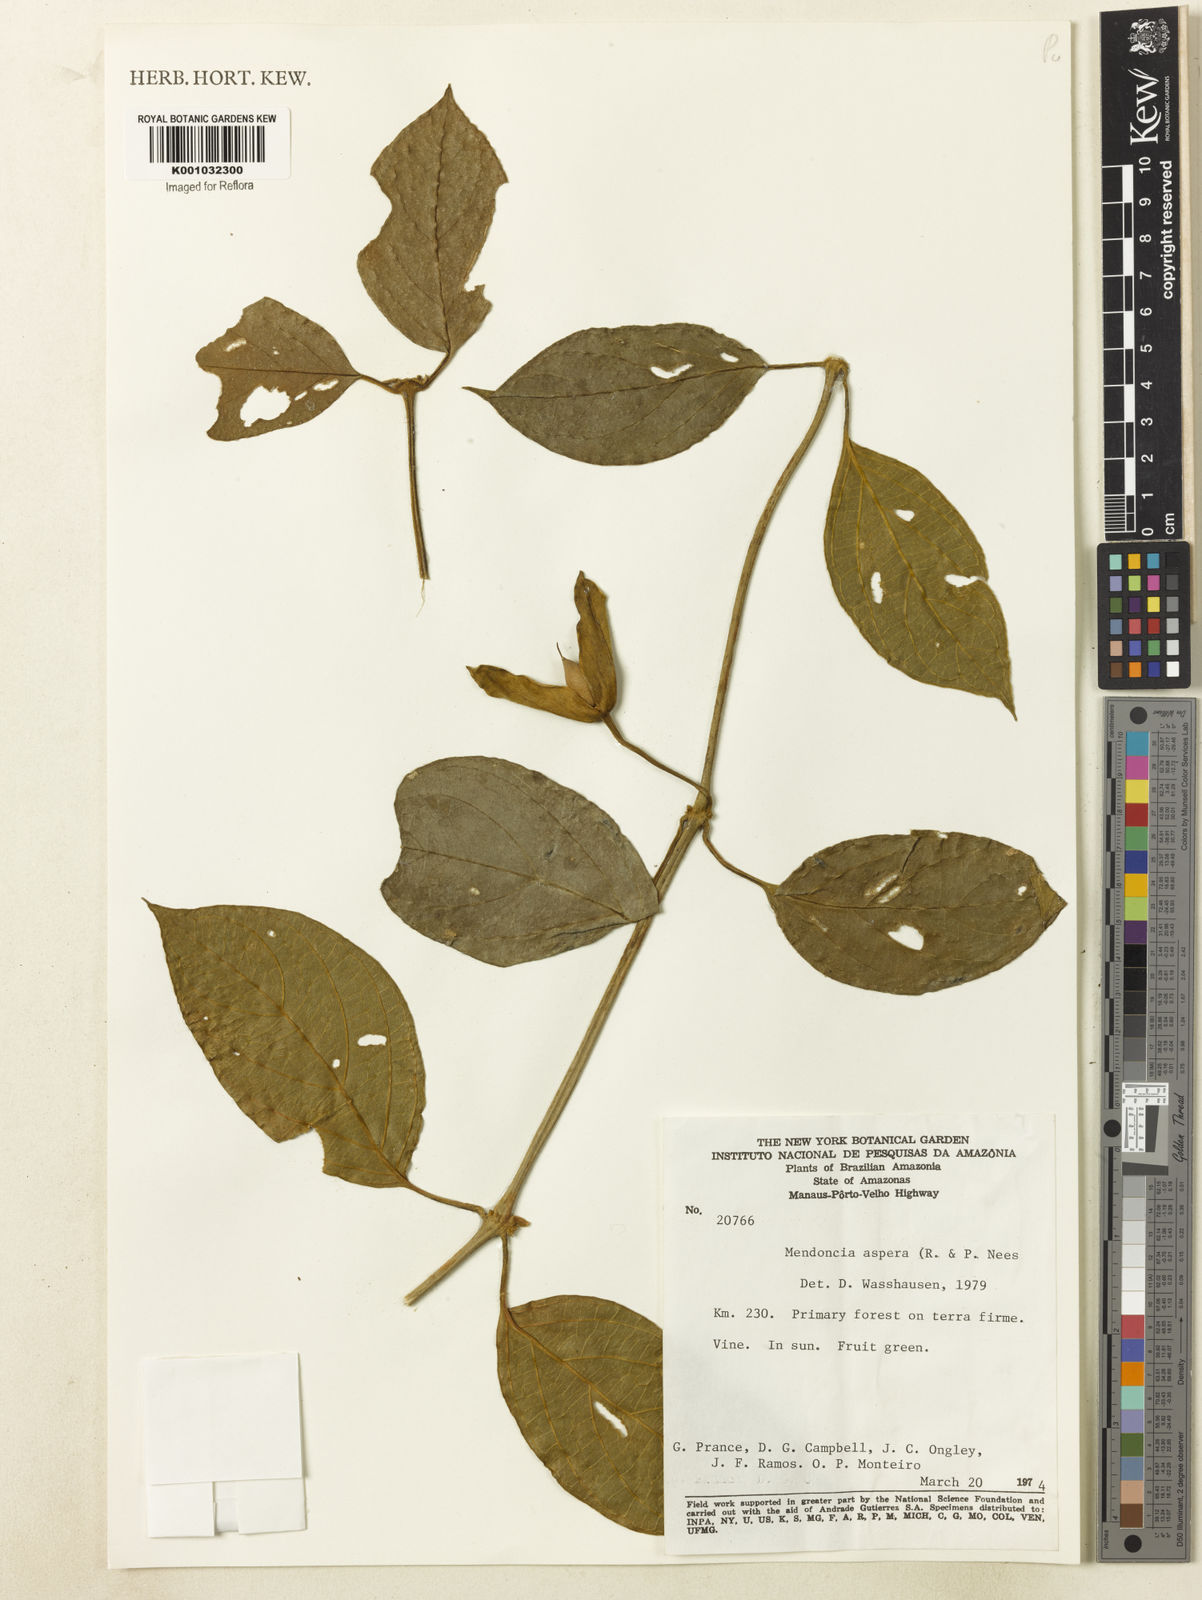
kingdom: Plantae
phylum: Tracheophyta
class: Magnoliopsida
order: Lamiales
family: Acanthaceae
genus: Mendoncia
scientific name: Mendoncia
